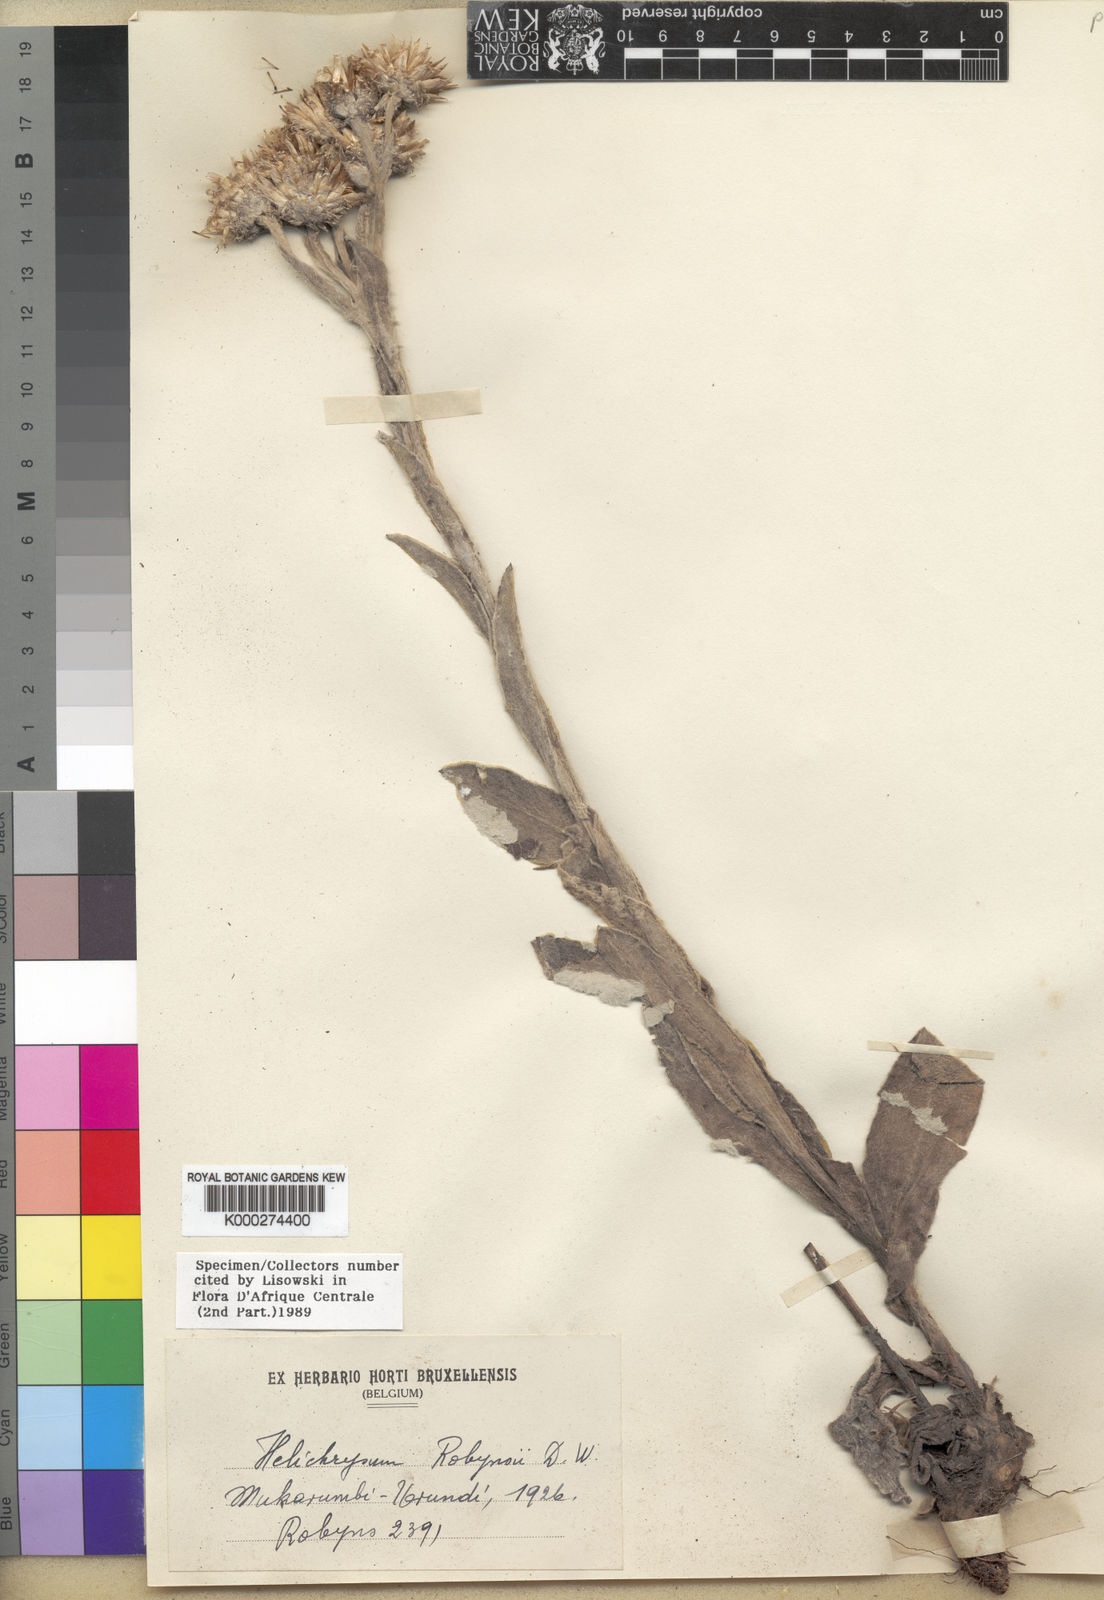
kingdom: Plantae
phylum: Tracheophyta
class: Magnoliopsida
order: Asterales
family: Asteraceae
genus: Helichrysum
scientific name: Helichrysum nitens
